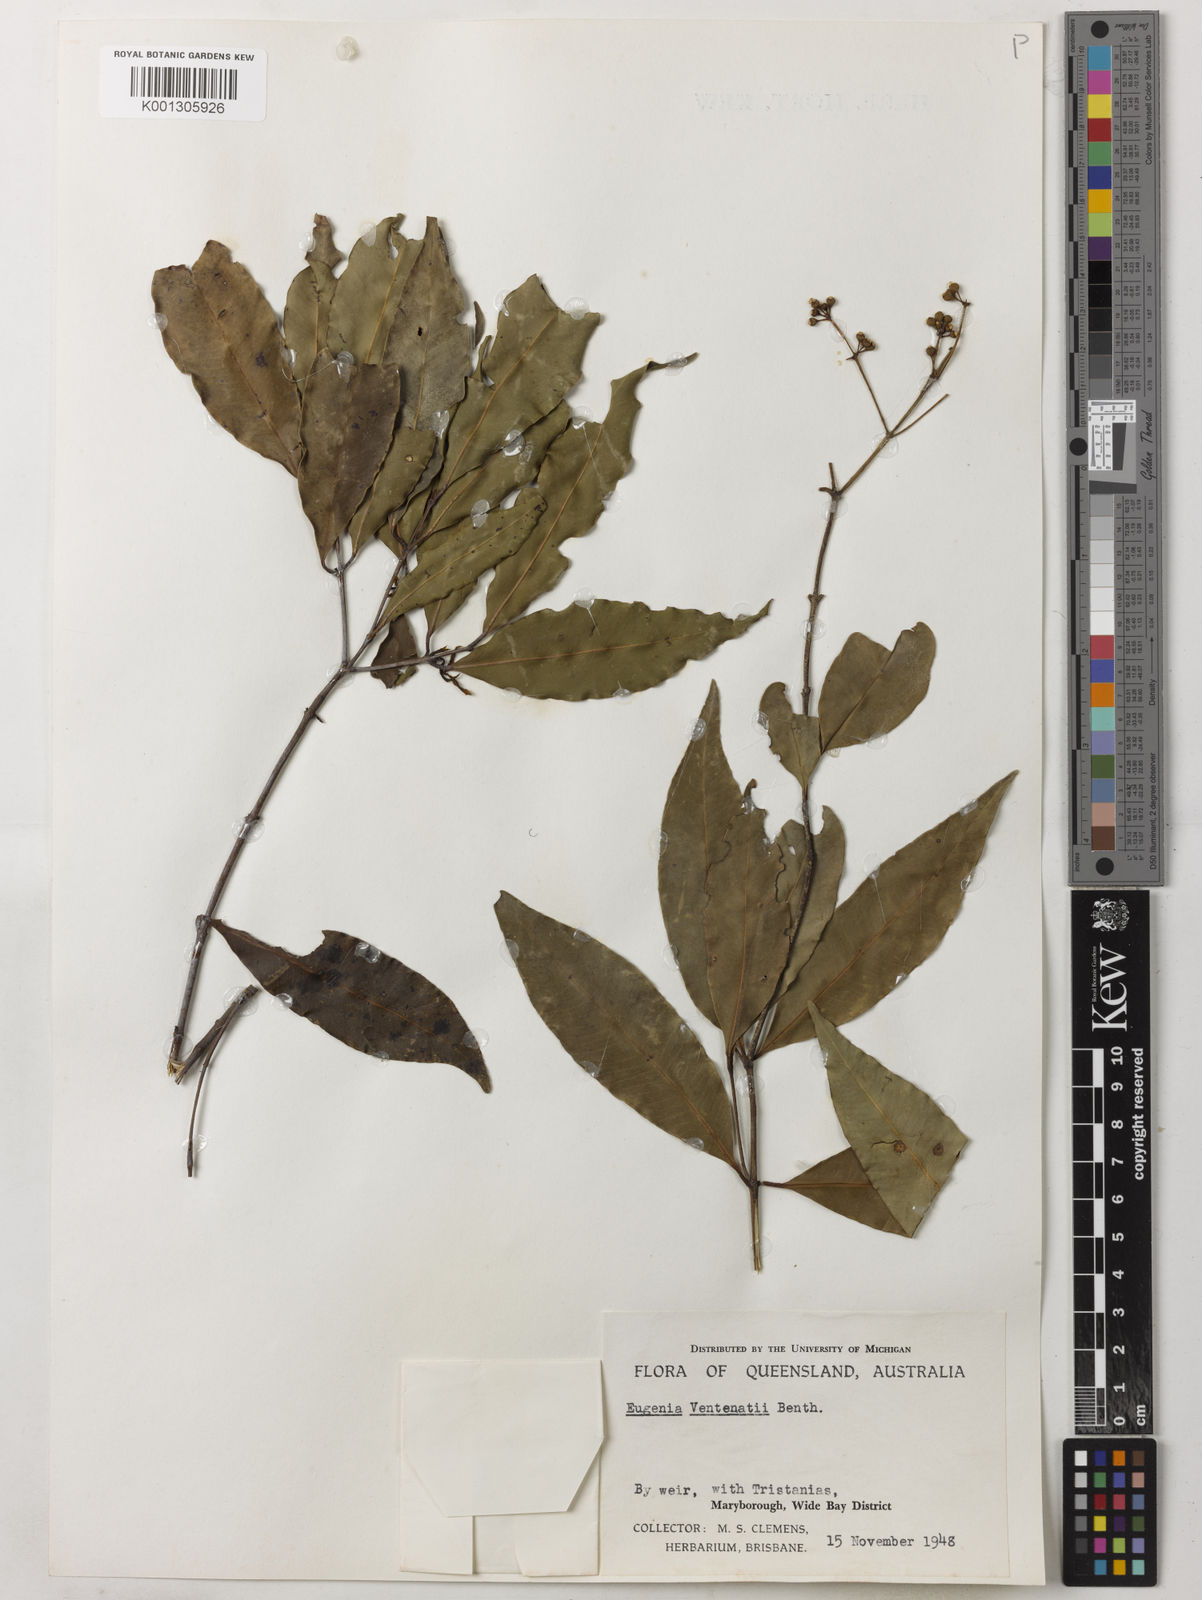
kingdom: Plantae
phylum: Tracheophyta
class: Magnoliopsida
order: Myrtales
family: Myrtaceae
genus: Syzygium
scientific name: Syzygium floribundum
